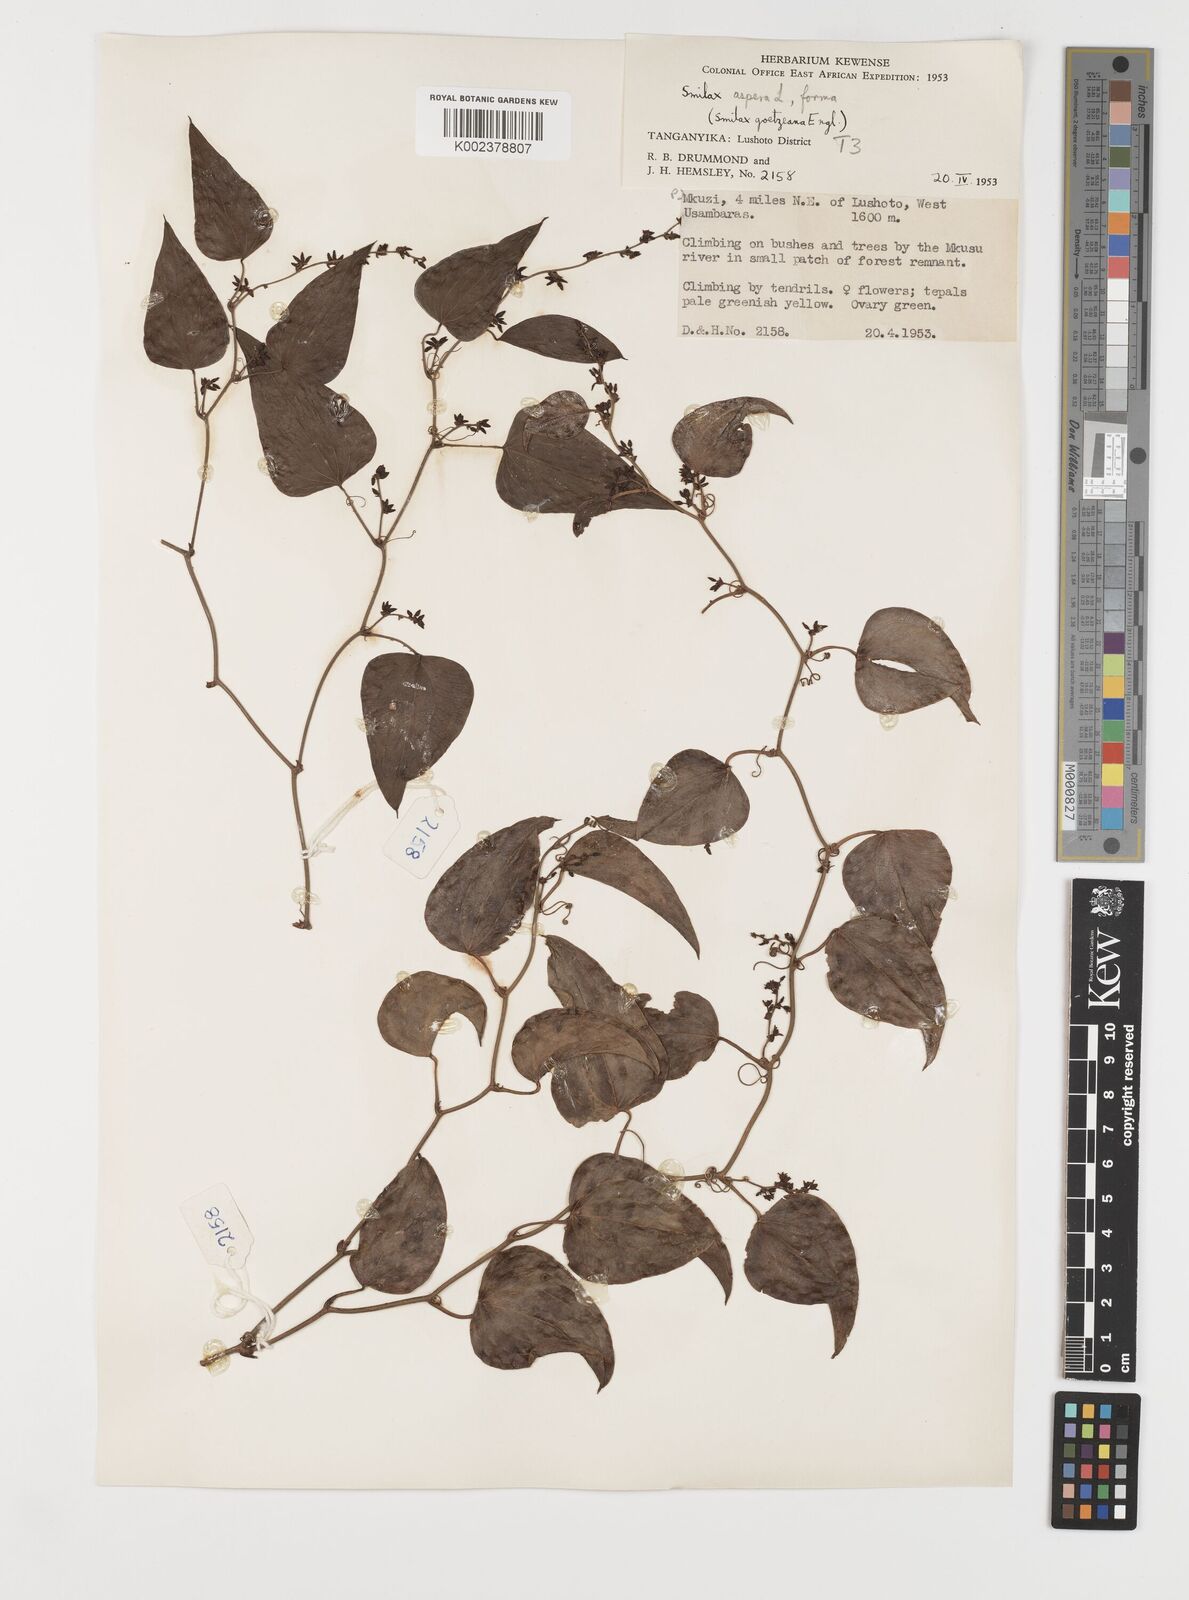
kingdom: Plantae
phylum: Tracheophyta
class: Liliopsida
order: Liliales
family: Smilacaceae
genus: Smilax
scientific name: Smilax aspera
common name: Common smilax
